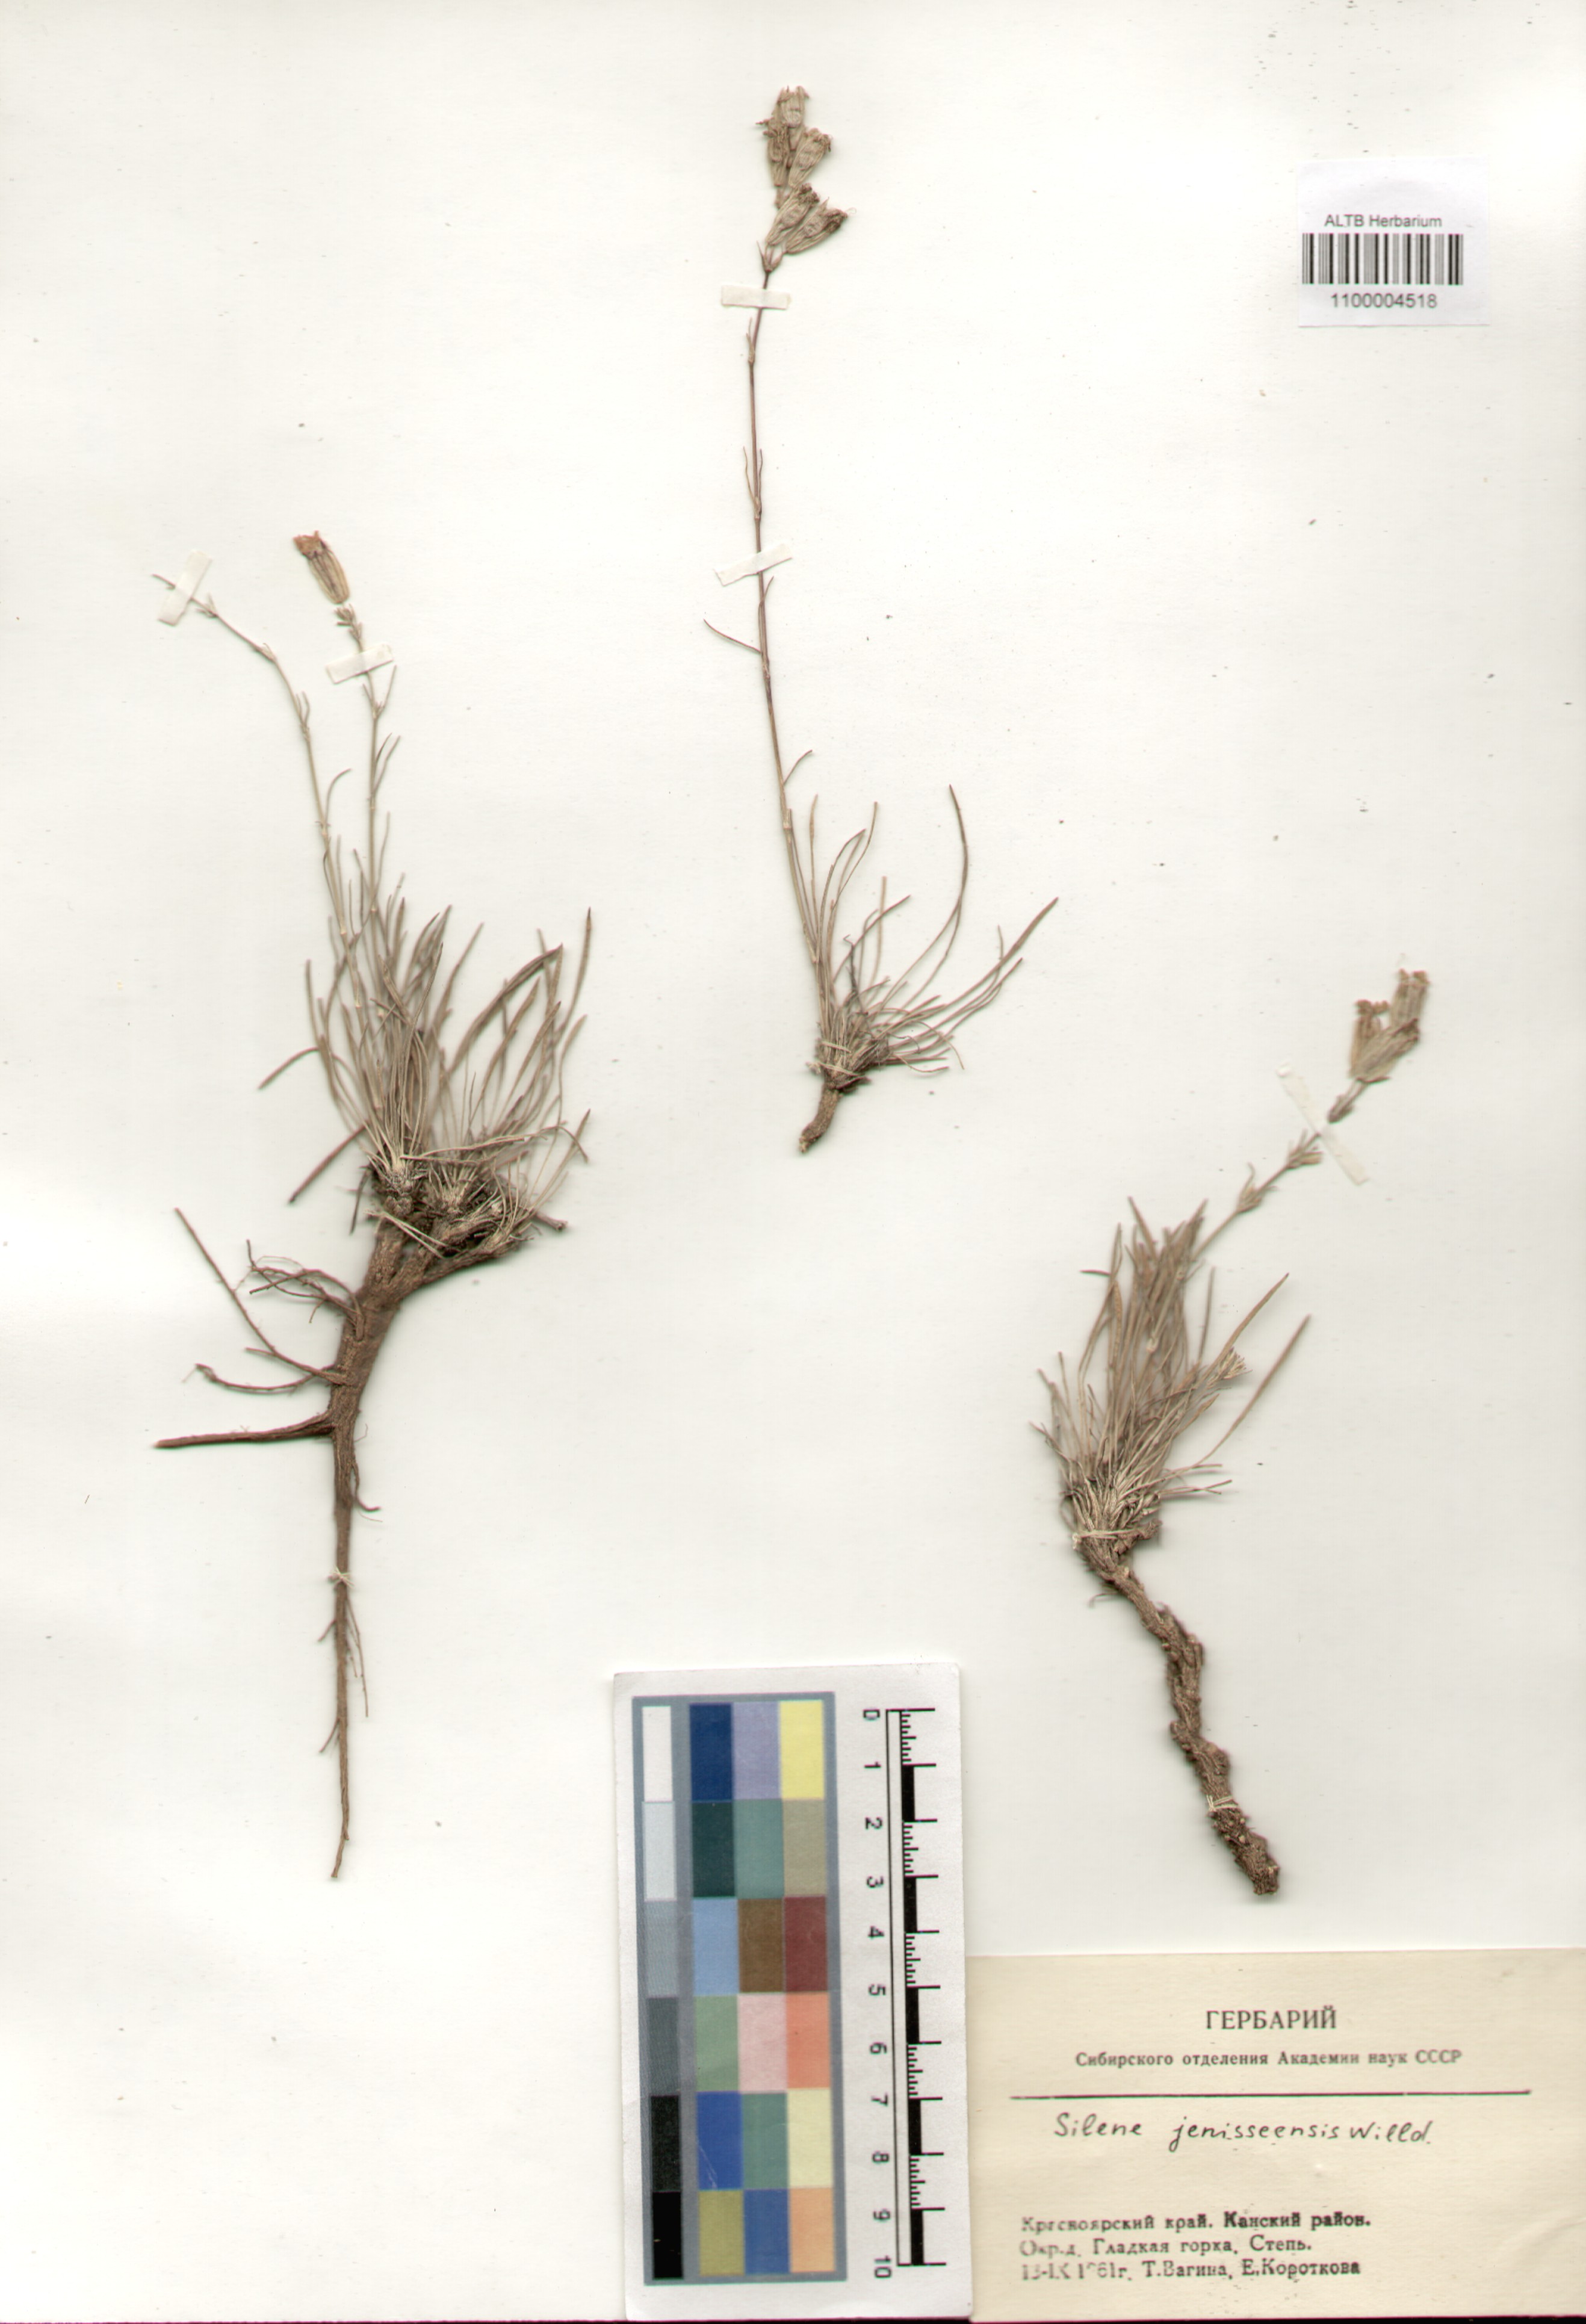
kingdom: Plantae
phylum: Tracheophyta
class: Magnoliopsida
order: Caryophyllales
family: Caryophyllaceae
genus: Silene
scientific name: Silene jeniseensis
